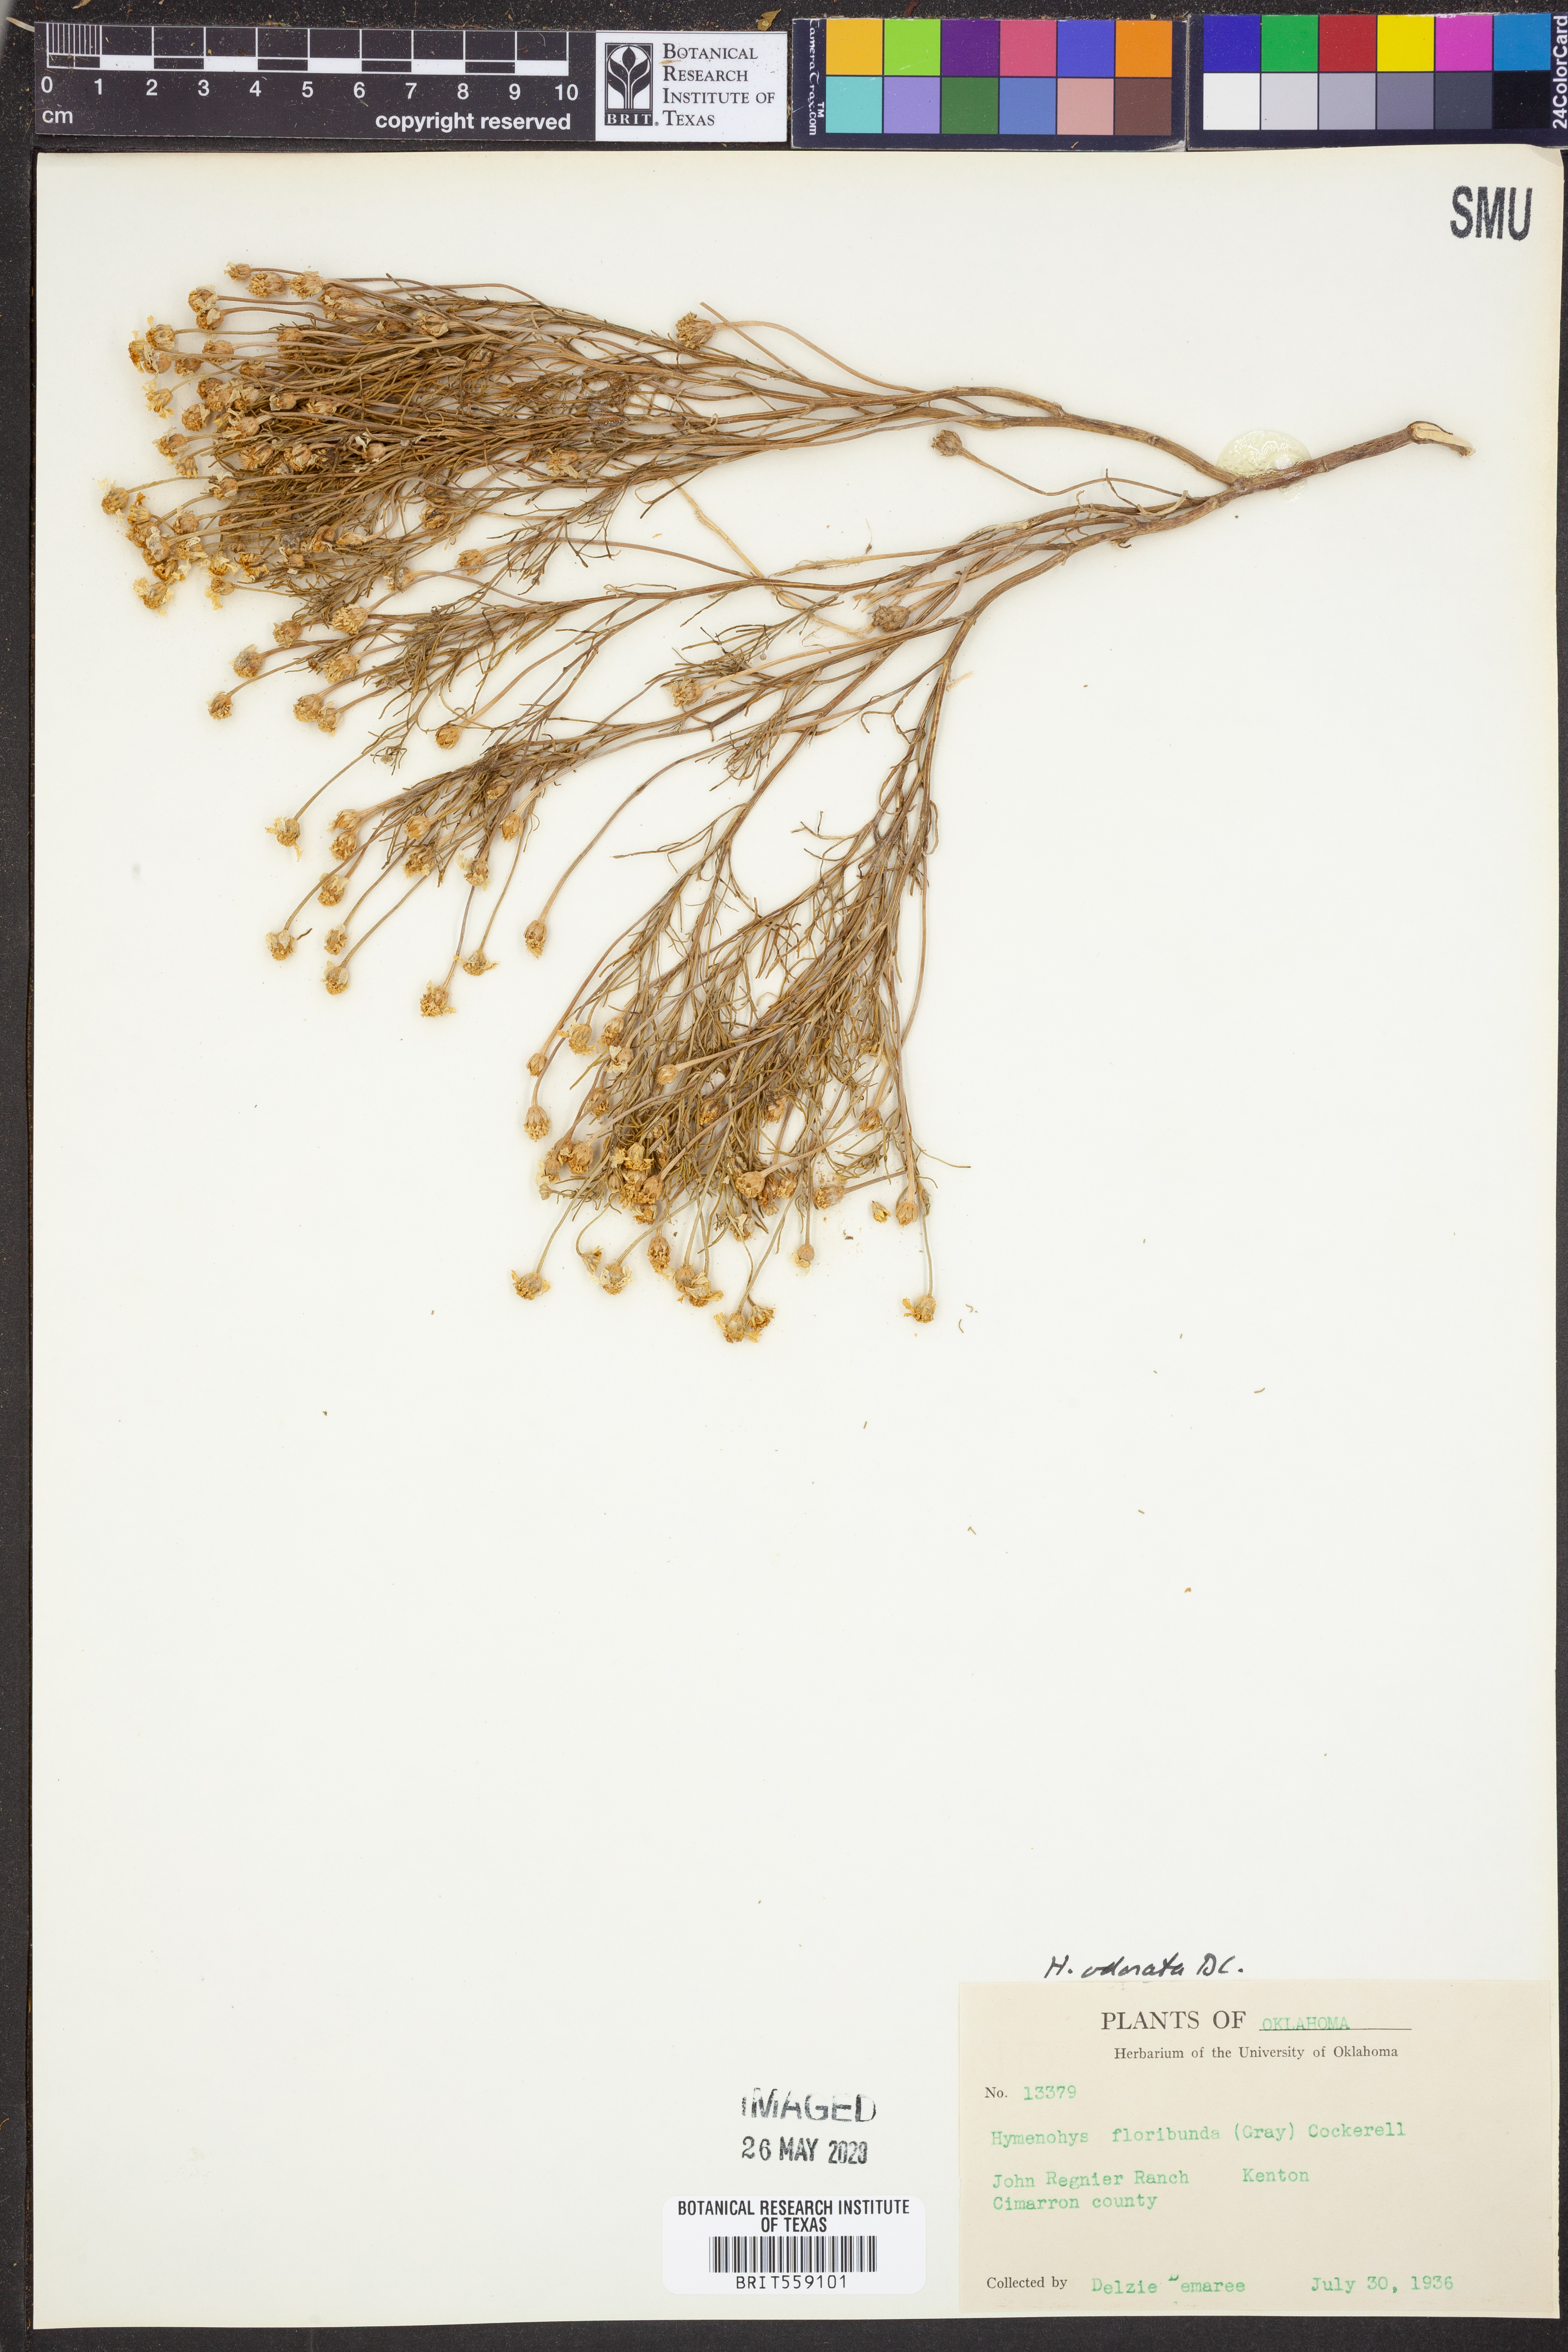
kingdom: Plantae
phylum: Tracheophyta
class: Magnoliopsida
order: Asterales
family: Asteraceae
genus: Hymenoxys
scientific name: Hymenoxys odorata
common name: Bitter rubberweed
